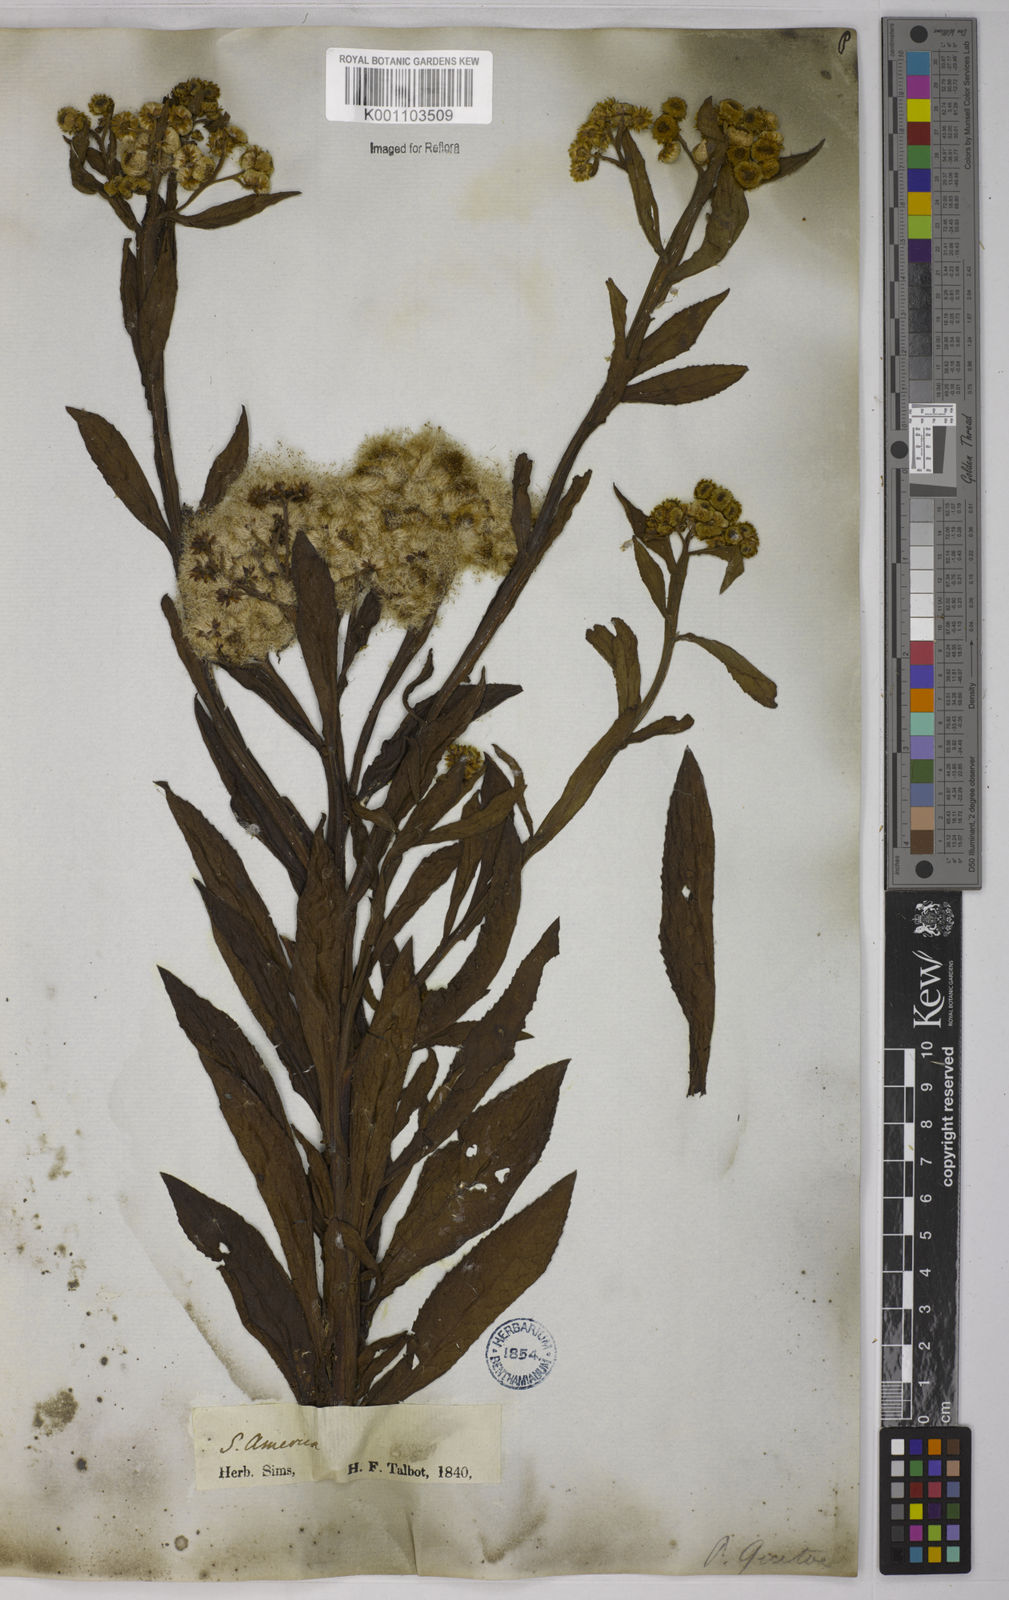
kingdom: Plantae
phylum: Tracheophyta
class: Magnoliopsida
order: Asterales
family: Asteraceae
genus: Pluchea
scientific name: Pluchea sagittalis
